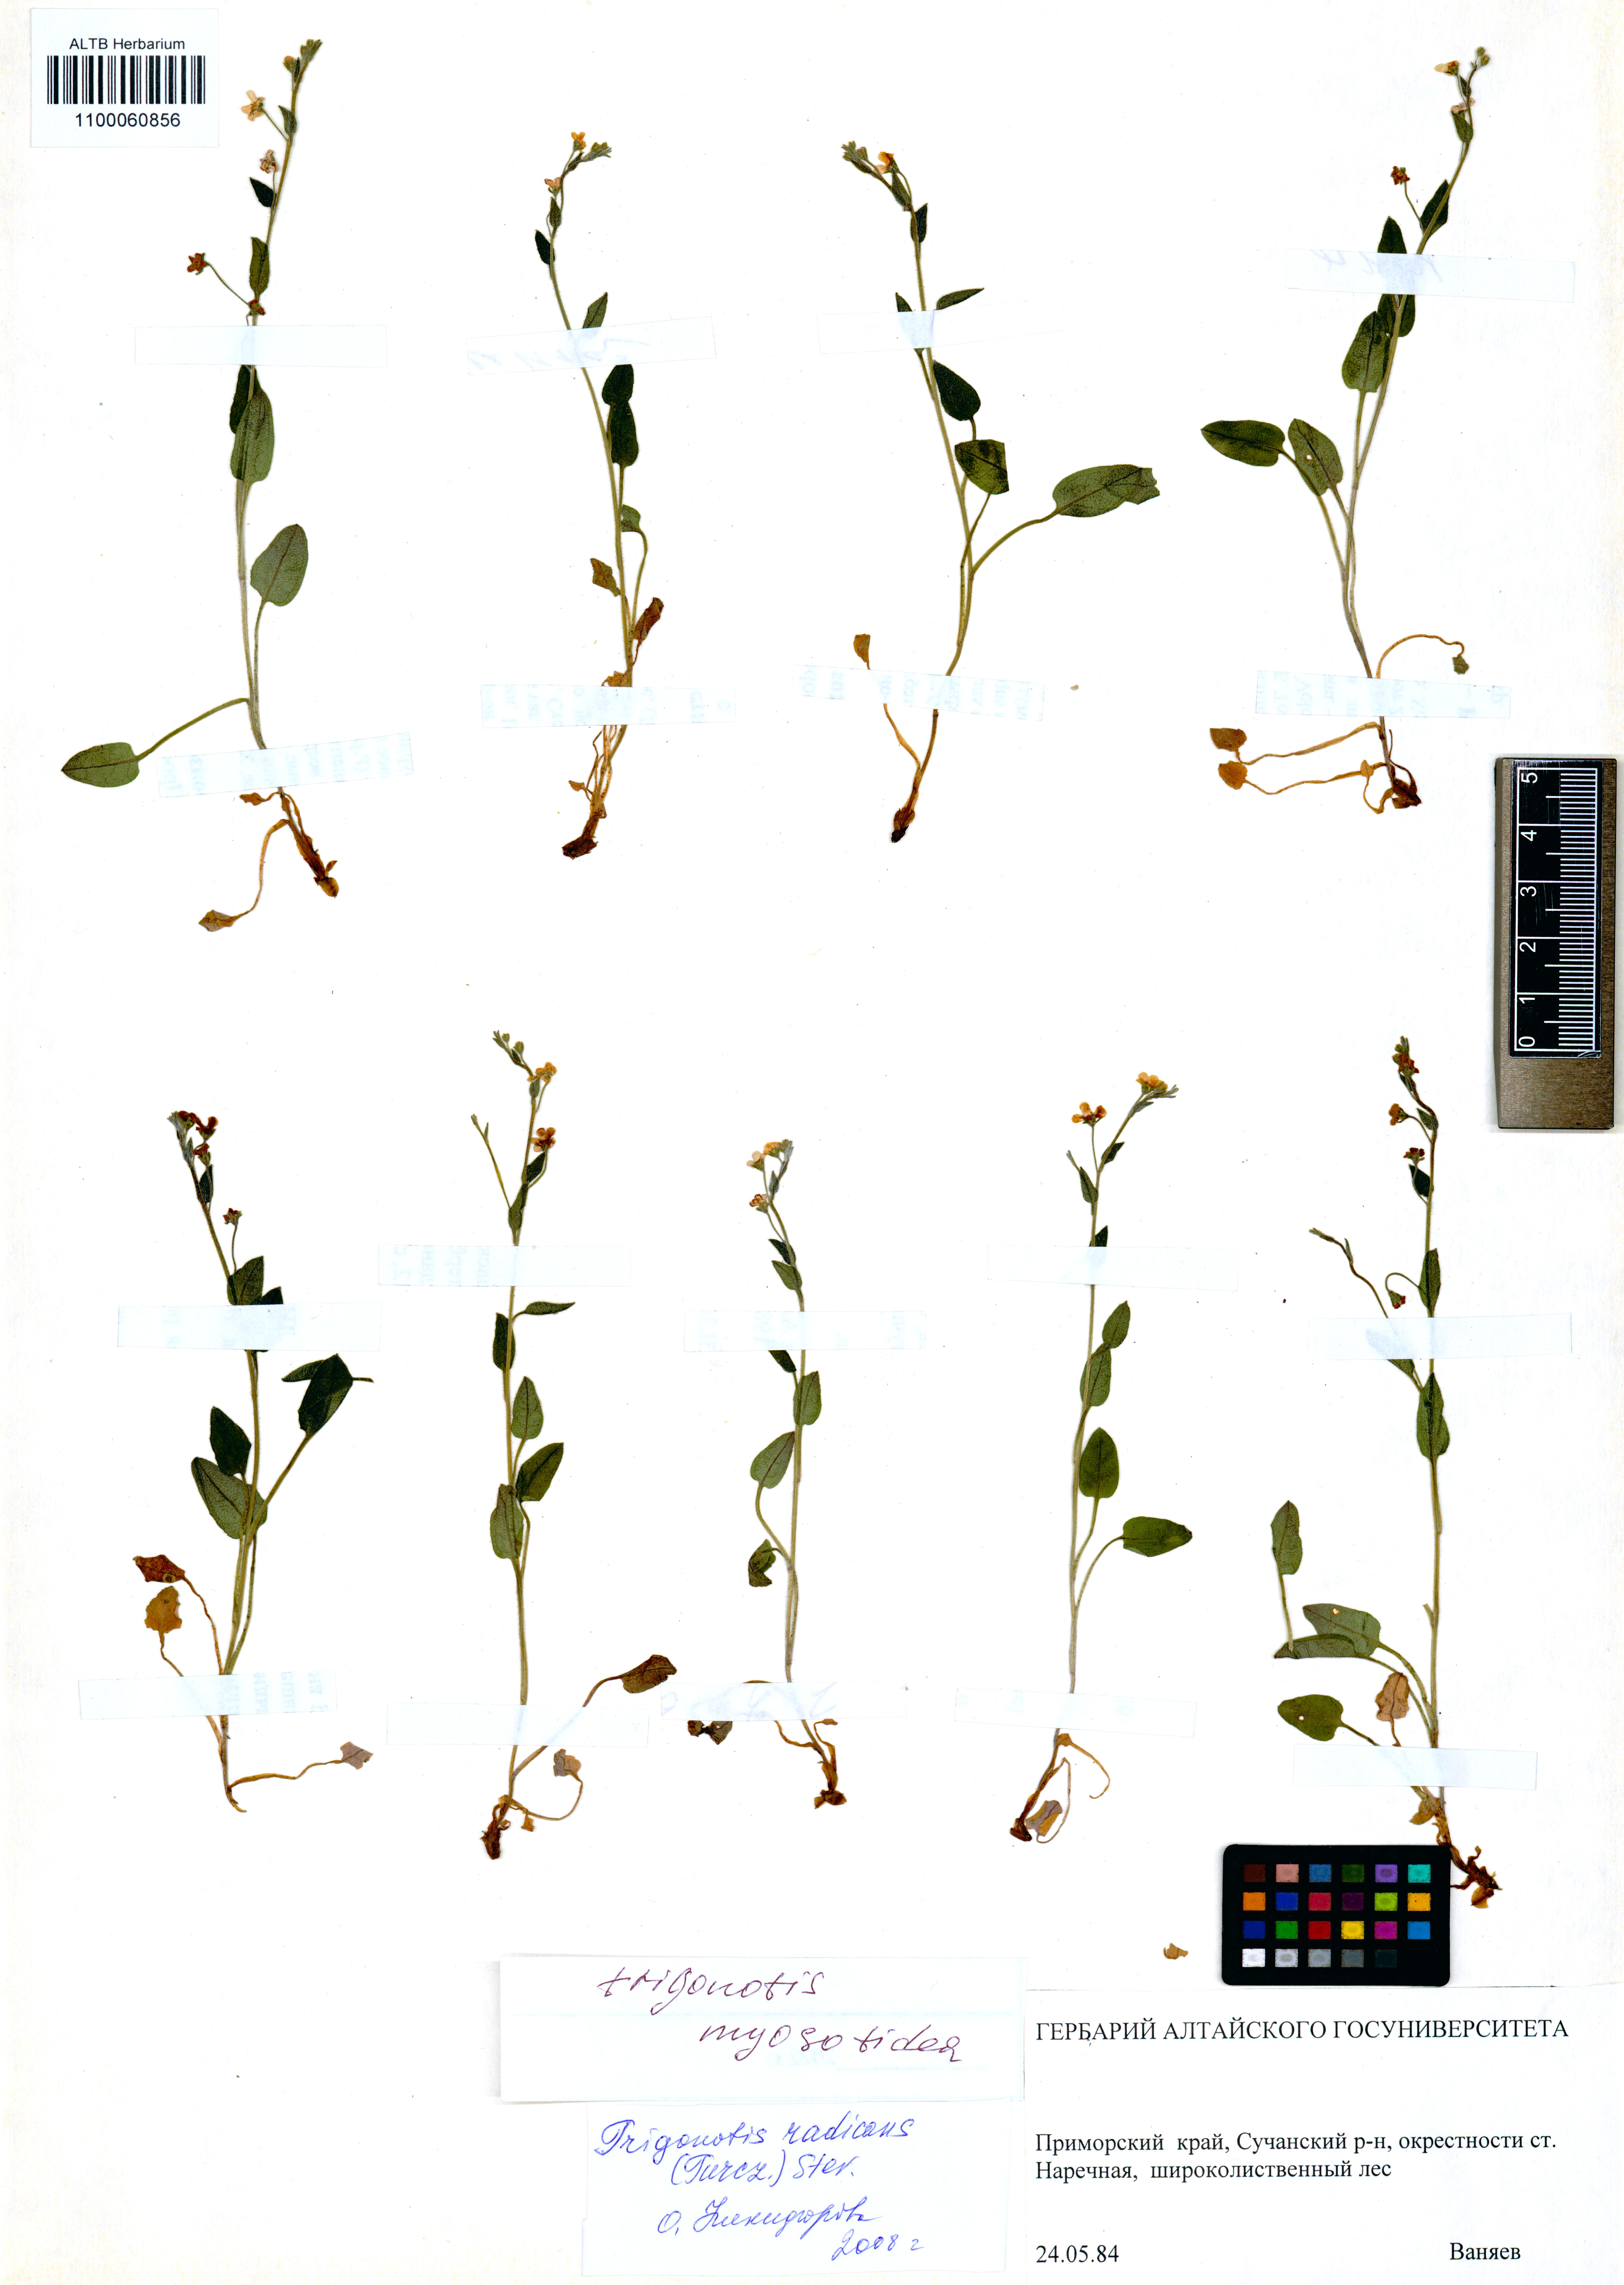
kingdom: Plantae
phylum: Tracheophyta
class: Magnoliopsida
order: Boraginales
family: Boraginaceae
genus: Trigonotis
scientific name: Trigonotis myosotidea
